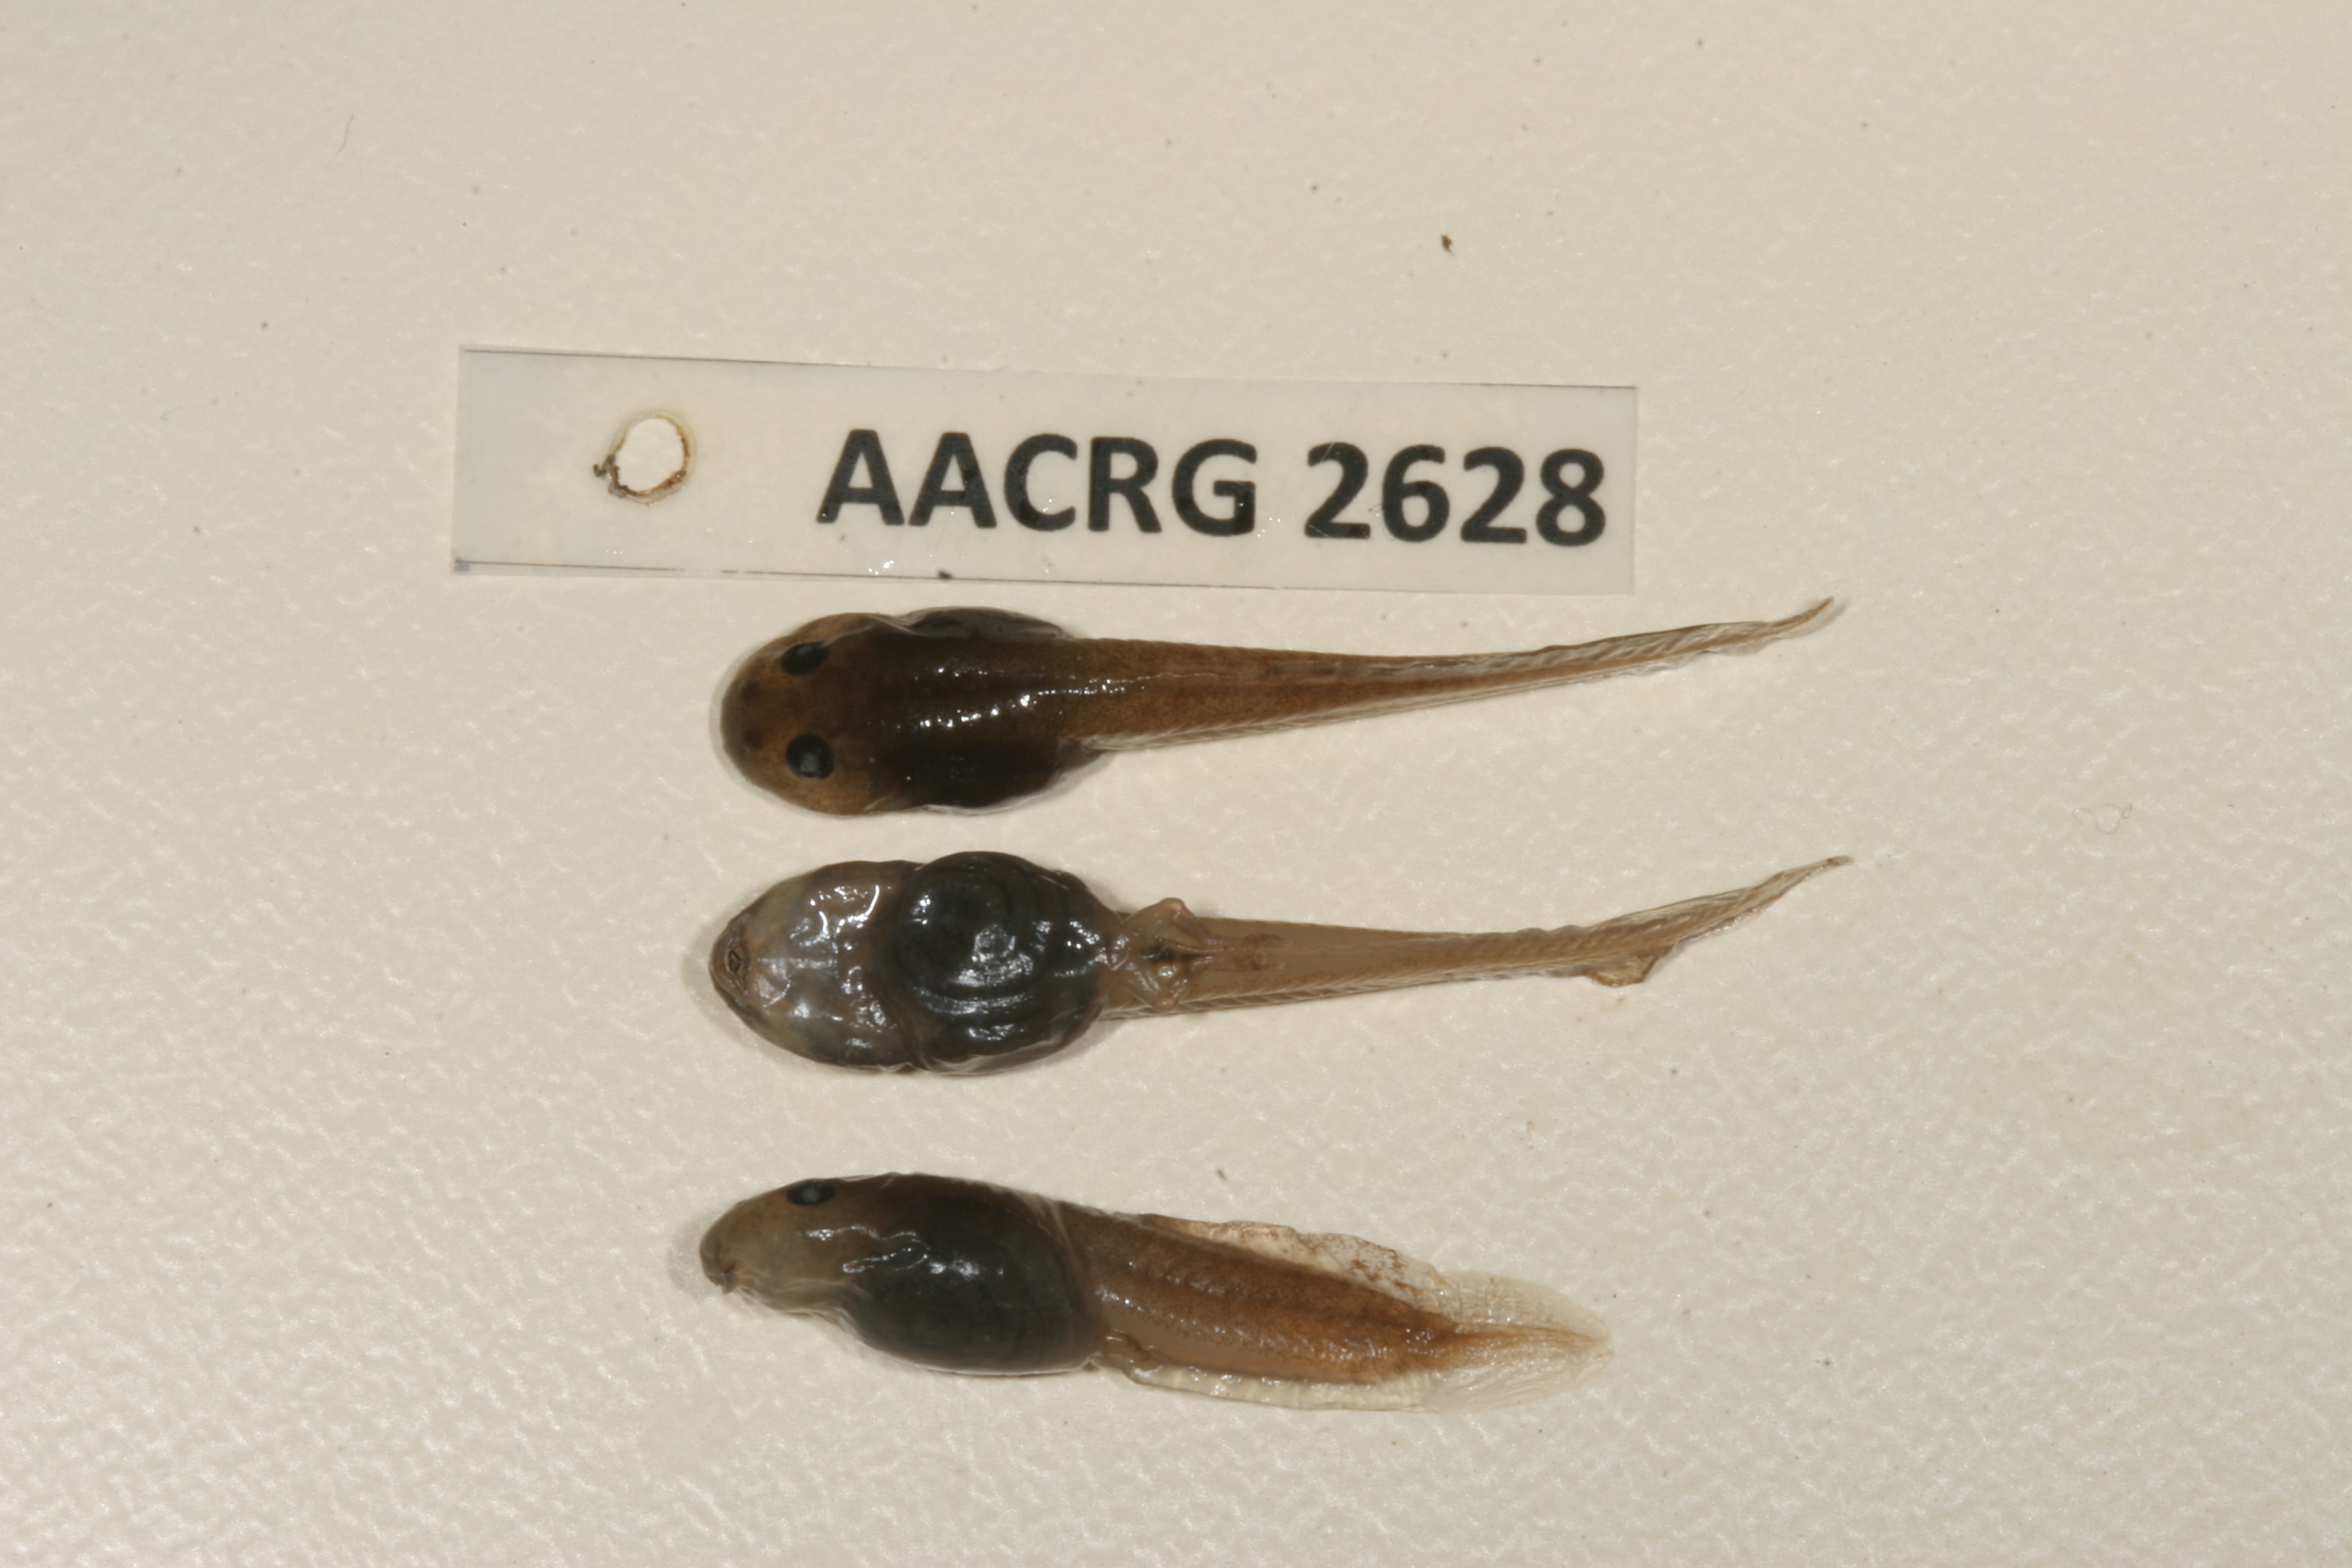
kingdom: Animalia
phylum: Chordata
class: Amphibia
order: Anura
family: Pyxicephalidae
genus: Natalobatrachus
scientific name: Natalobatrachus bonebergi
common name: Natal diving frog
